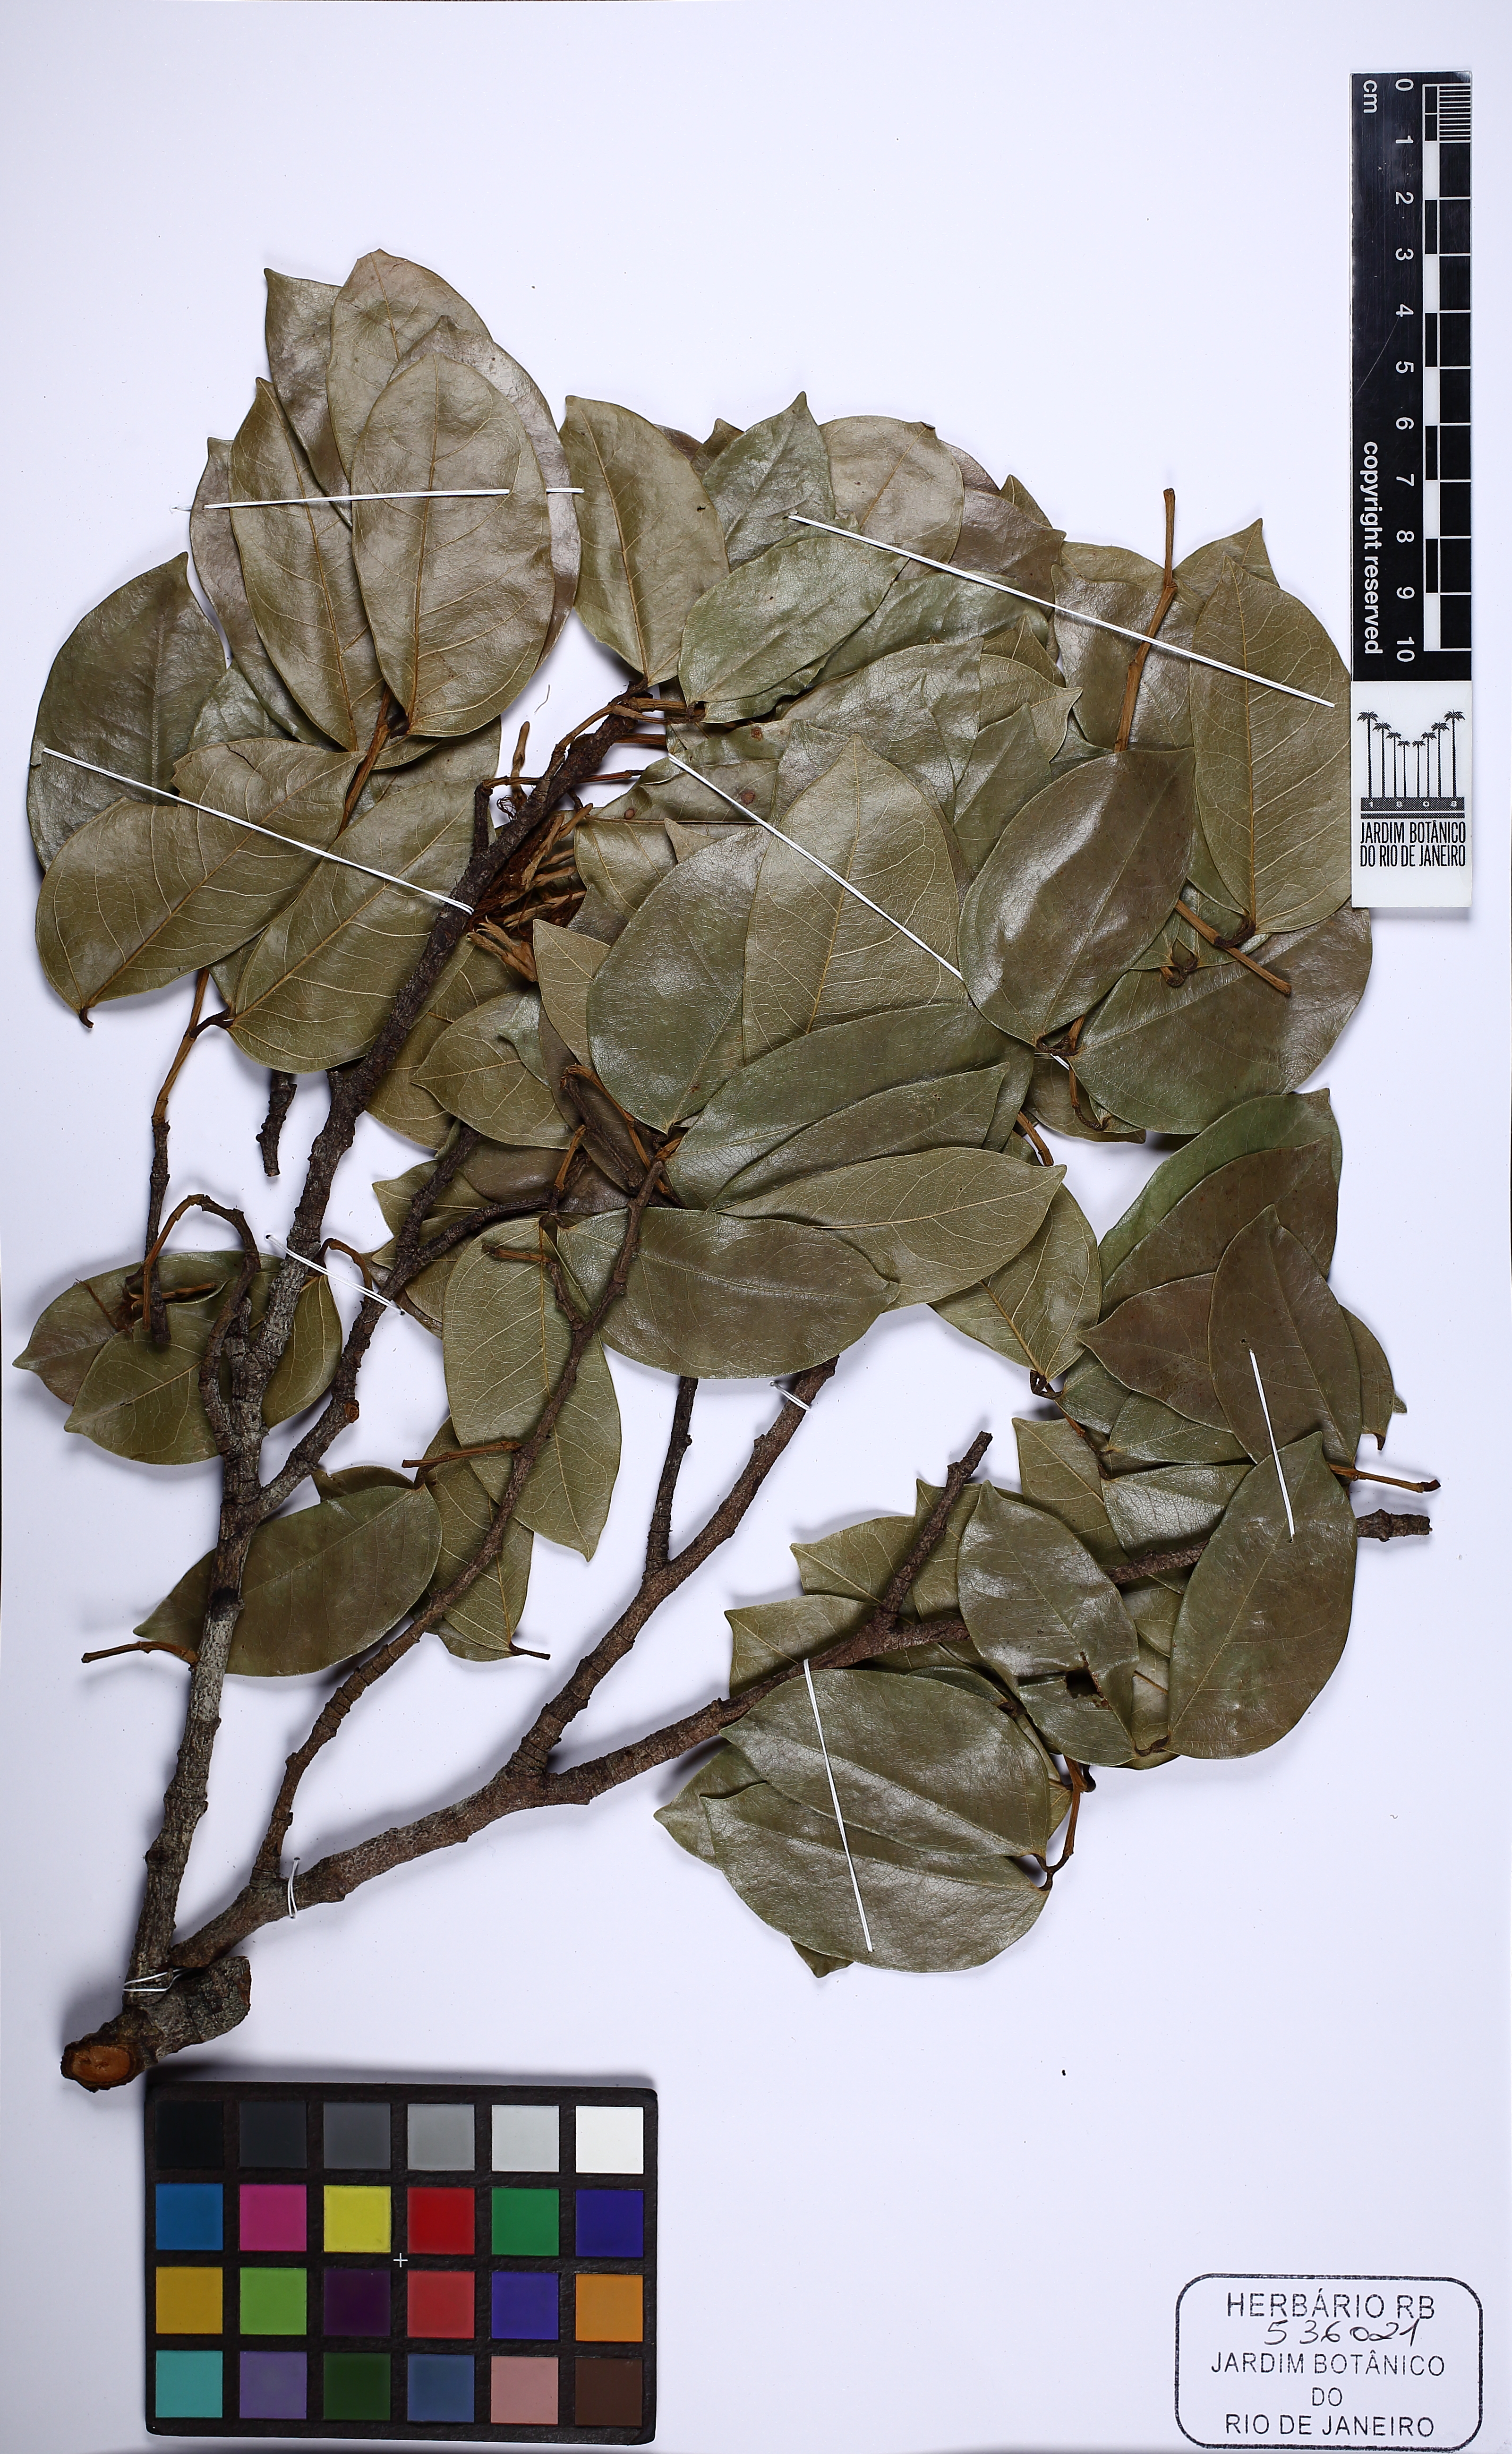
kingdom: Plantae
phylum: Tracheophyta
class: Magnoliopsida
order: Fabales
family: Fabaceae
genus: Hymenaea
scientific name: Hymenaea intermedia
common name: South american copal
